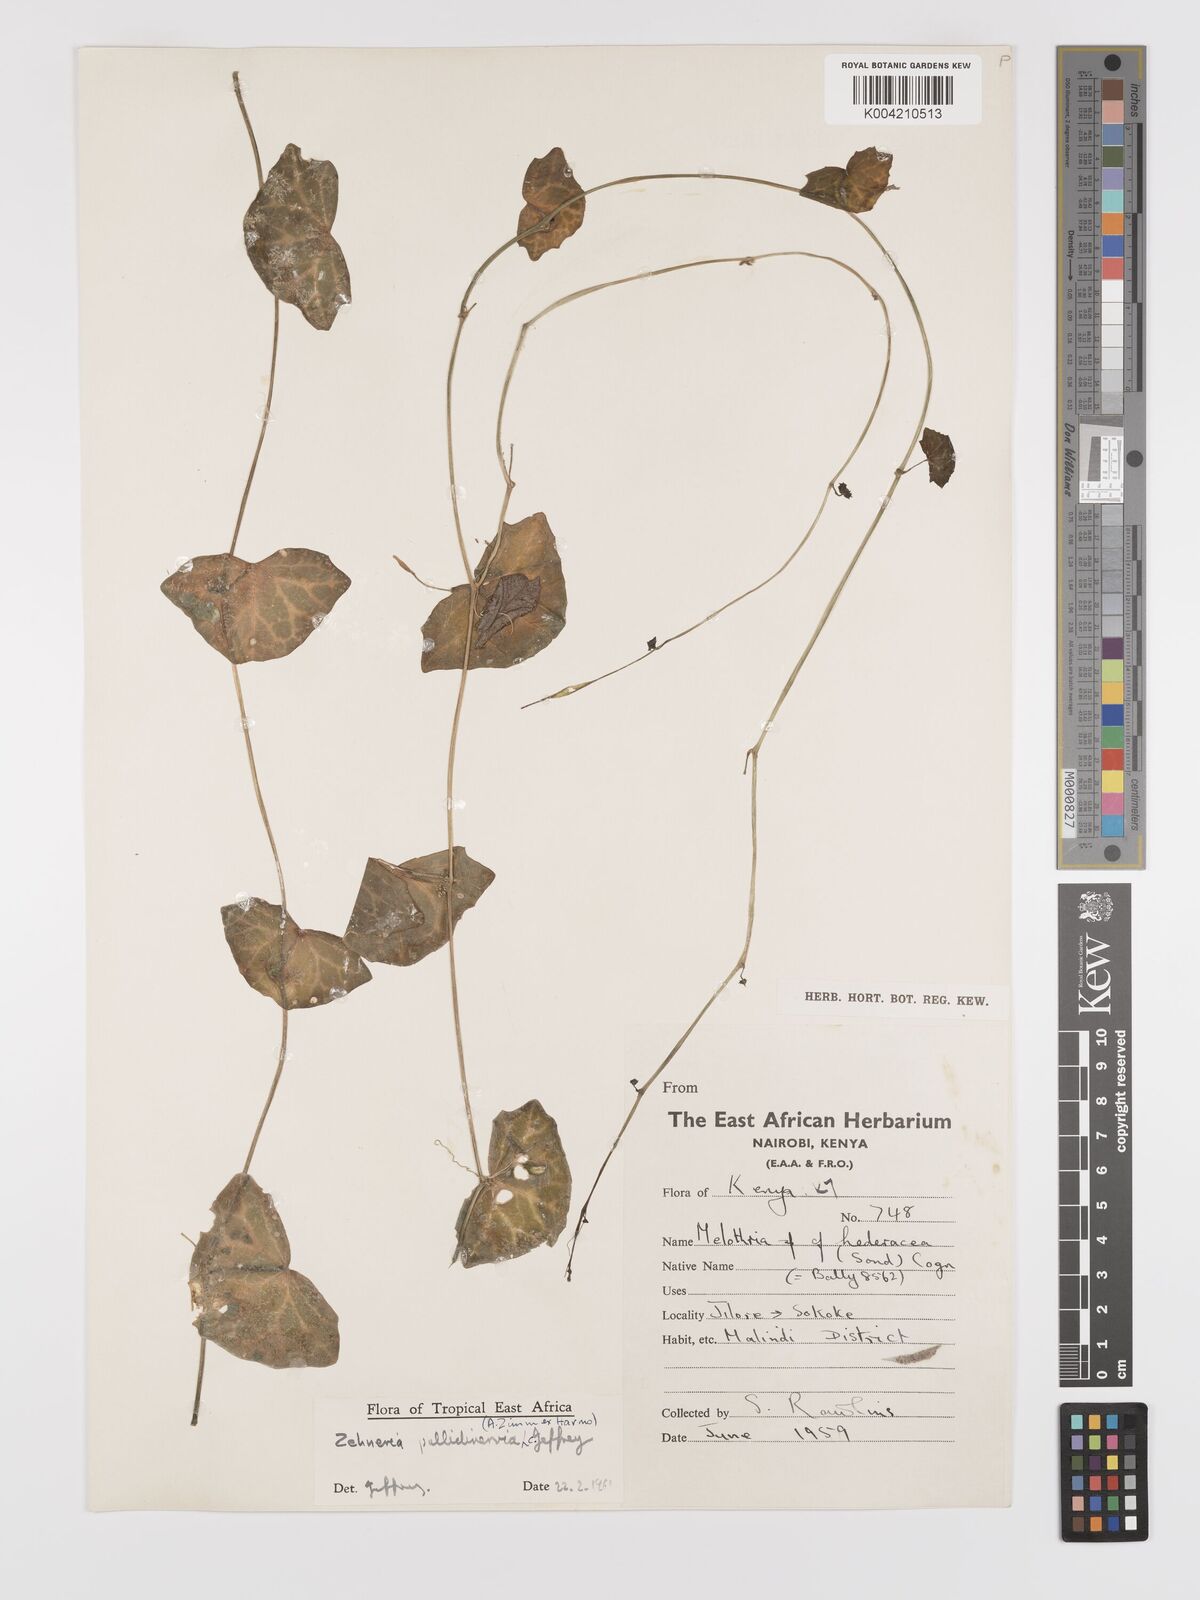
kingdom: Plantae
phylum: Tracheophyta
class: Magnoliopsida
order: Cucurbitales
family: Cucurbitaceae
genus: Zehneria
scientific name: Zehneria pallidinervia
